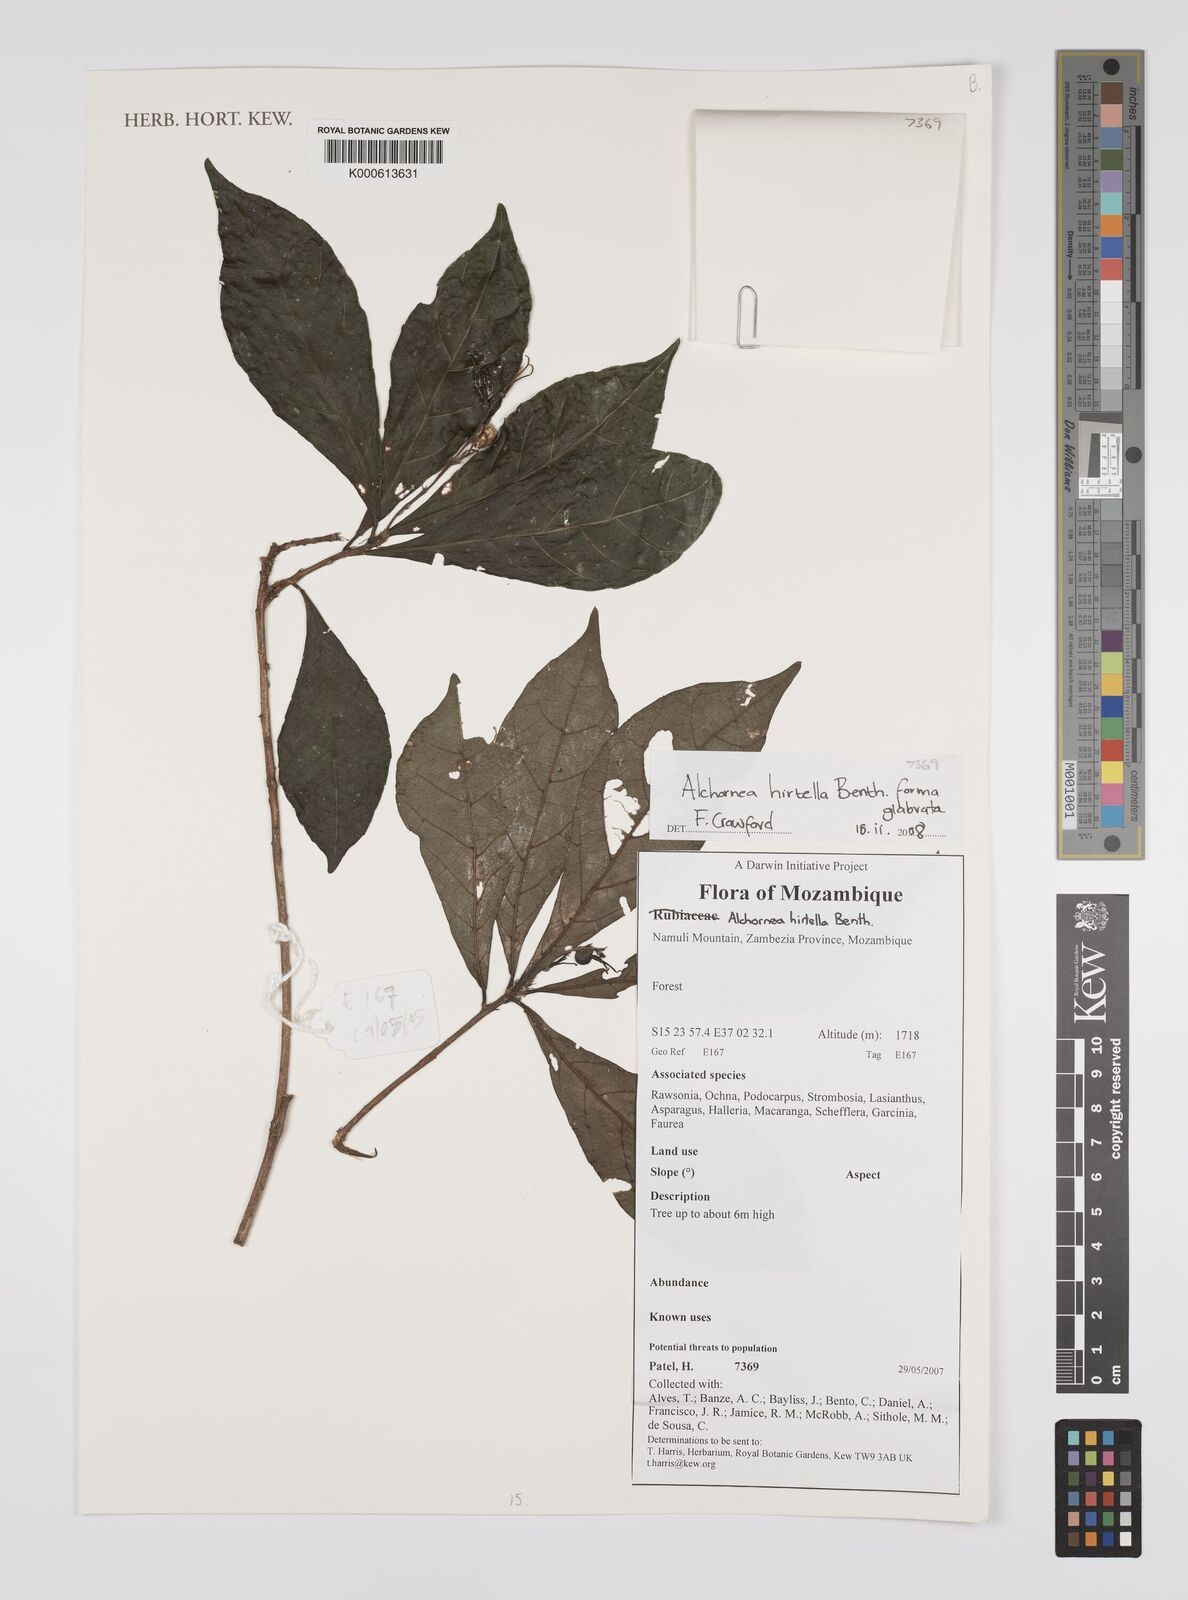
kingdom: Plantae
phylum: Tracheophyta
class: Magnoliopsida
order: Malpighiales
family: Euphorbiaceae
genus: Alchornea
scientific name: Alchornea hirtella
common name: Forest bead-string
